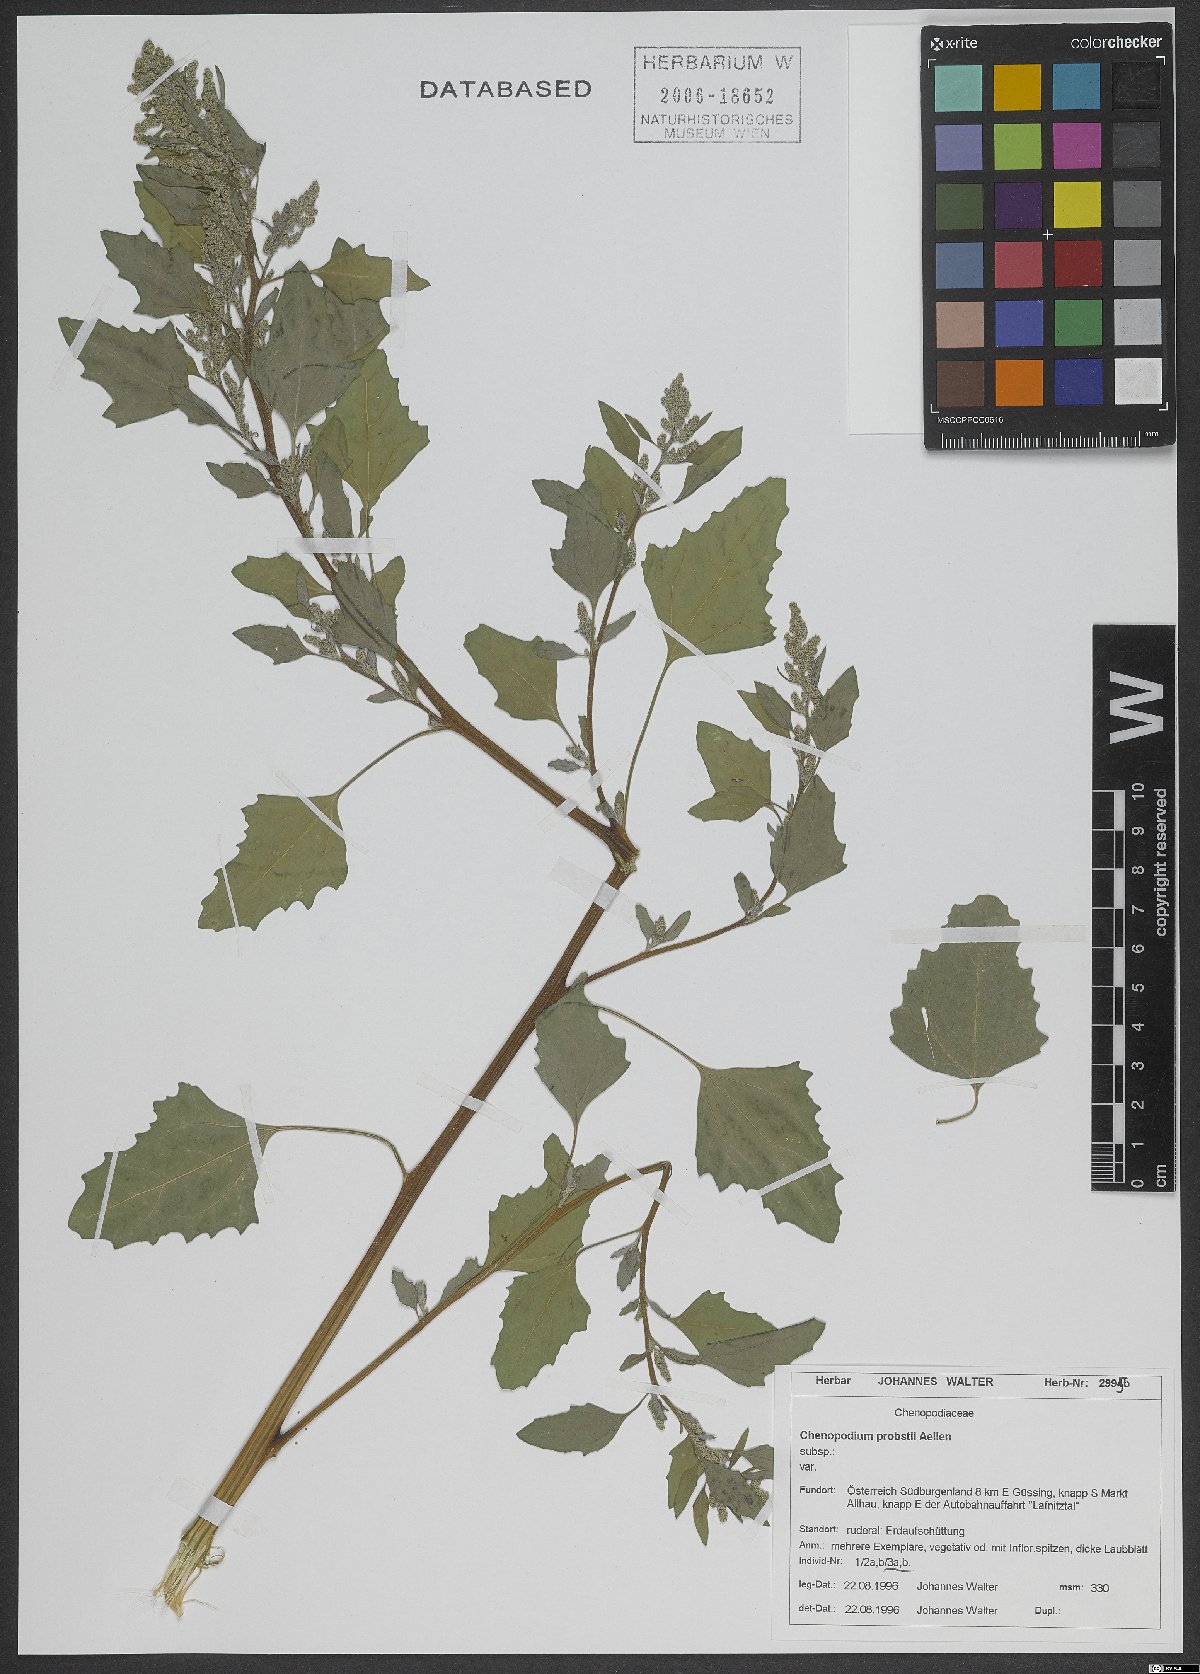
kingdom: Plantae
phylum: Tracheophyta
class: Magnoliopsida
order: Caryophyllales
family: Amaranthaceae
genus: Chenopodium
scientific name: Chenopodium probstii
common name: Probst's goosefoot
